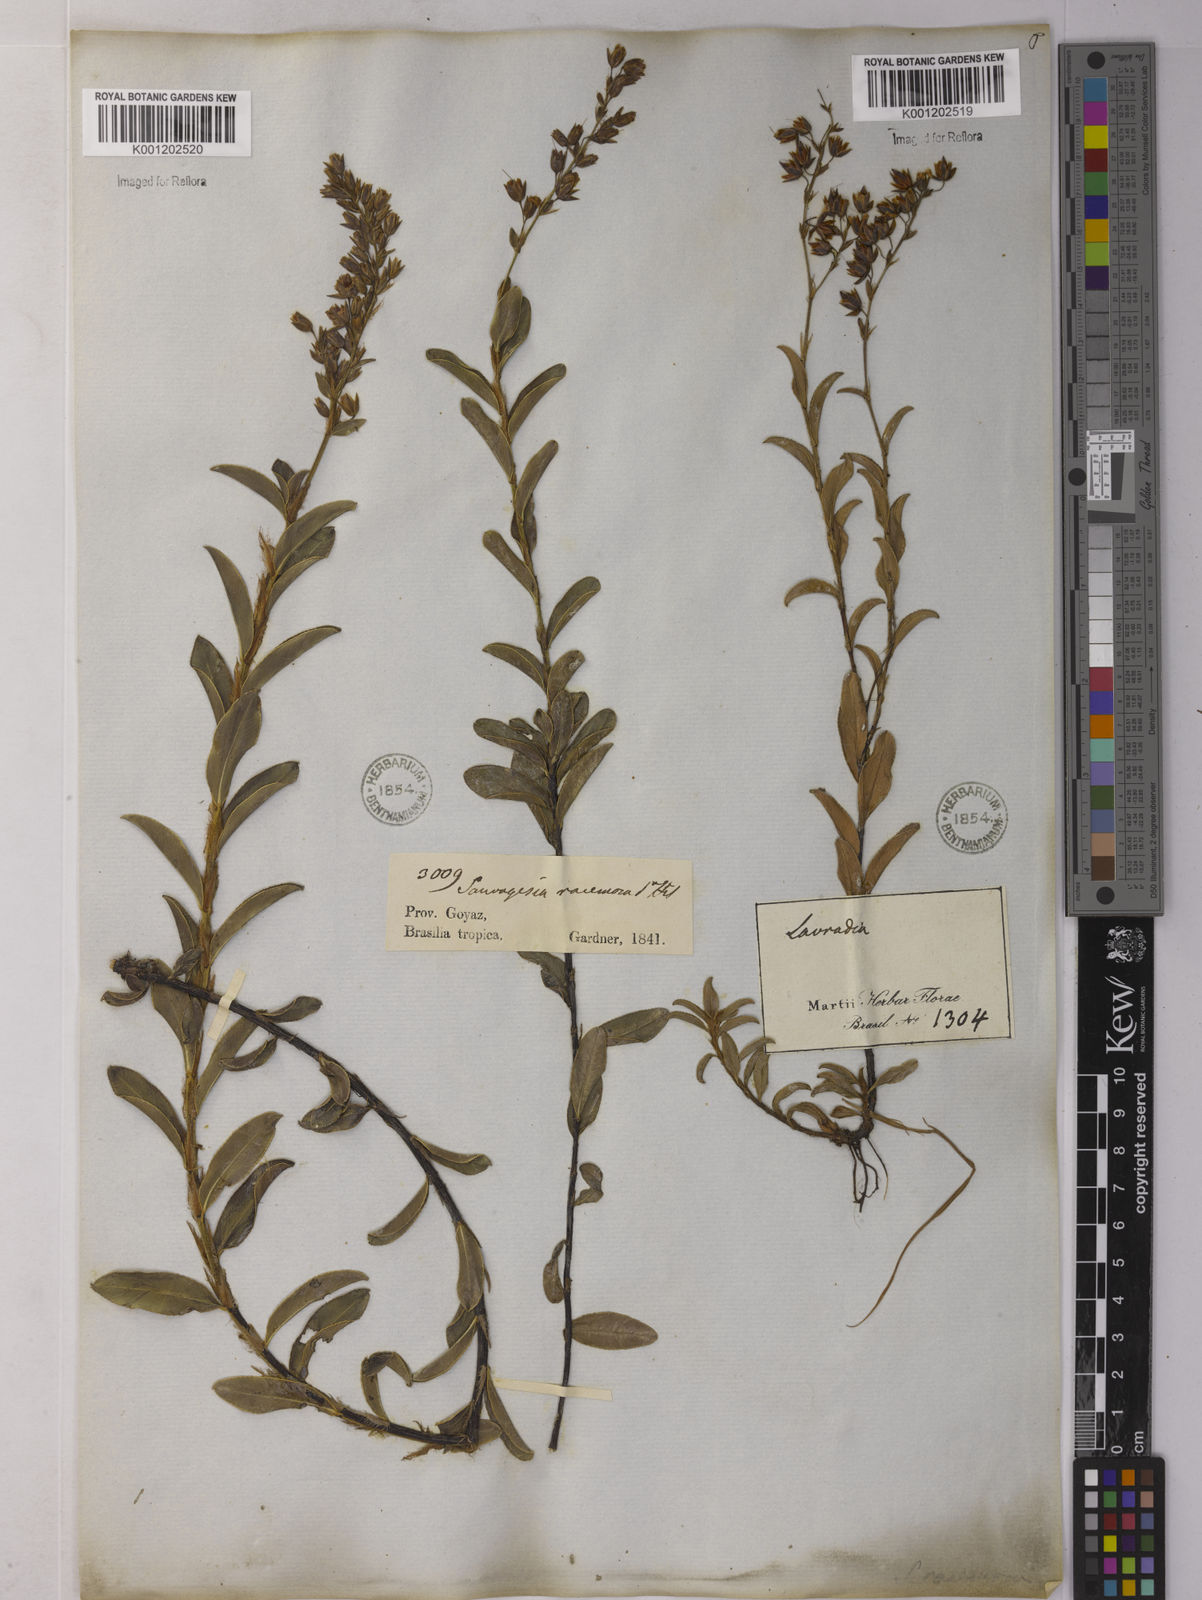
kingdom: Plantae
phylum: Tracheophyta
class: Magnoliopsida
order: Malpighiales
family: Ochnaceae
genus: Sauvagesia
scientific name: Sauvagesia racemosa
